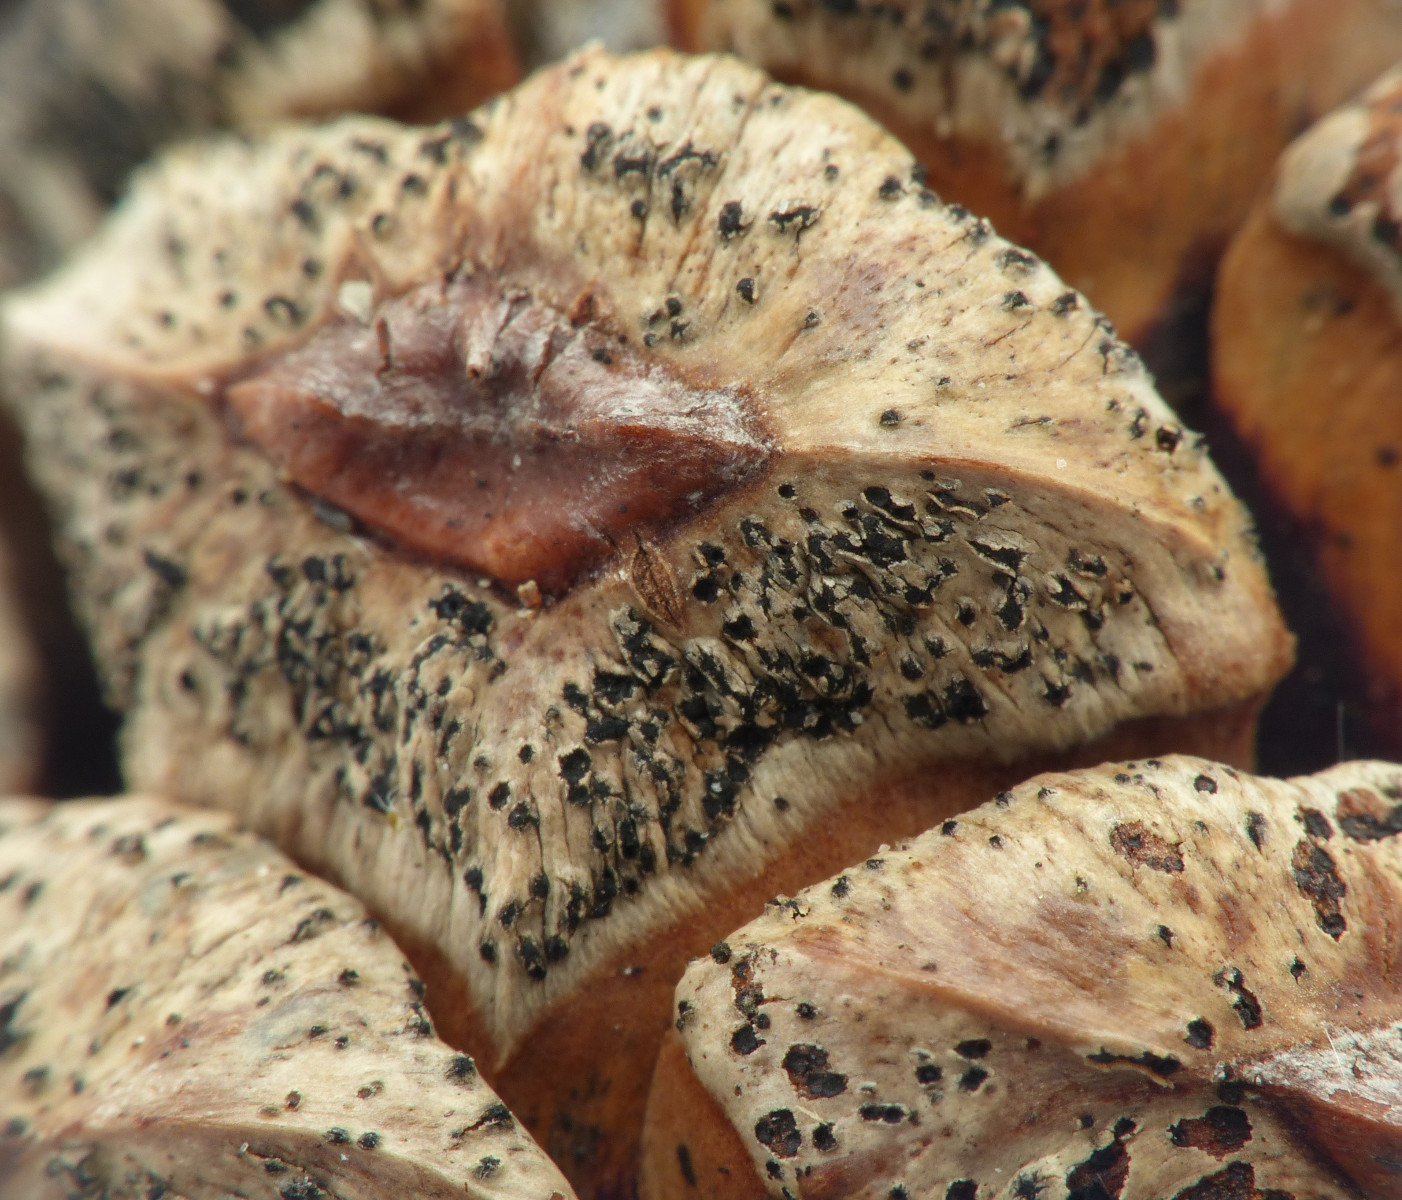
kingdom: Fungi
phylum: Ascomycota
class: Dothideomycetes
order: Botryosphaeriales
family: Botryosphaeriaceae
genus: Sphaeropsis
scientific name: Sphaeropsis sapinea
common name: Sphaeropsis blight
